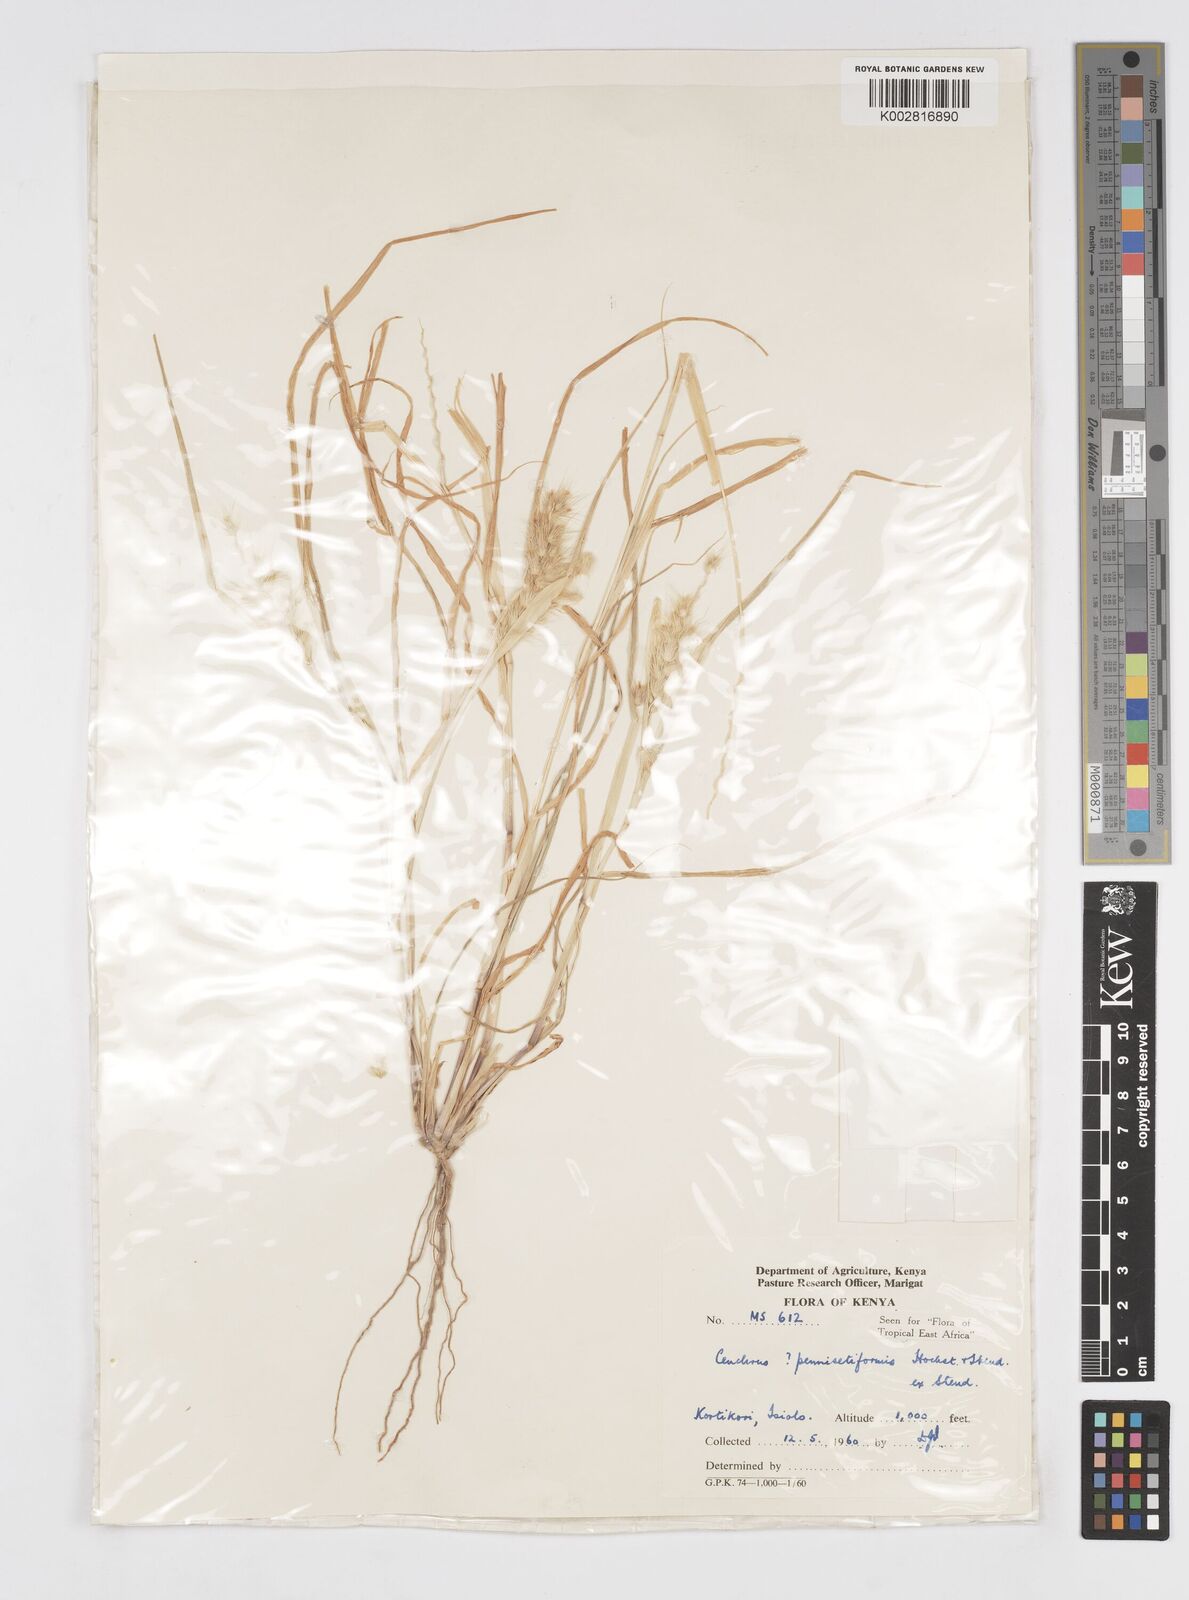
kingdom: Plantae
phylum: Tracheophyta
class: Liliopsida
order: Poales
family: Poaceae
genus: Cenchrus
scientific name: Cenchrus pennisetiformis
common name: Cloncurry
